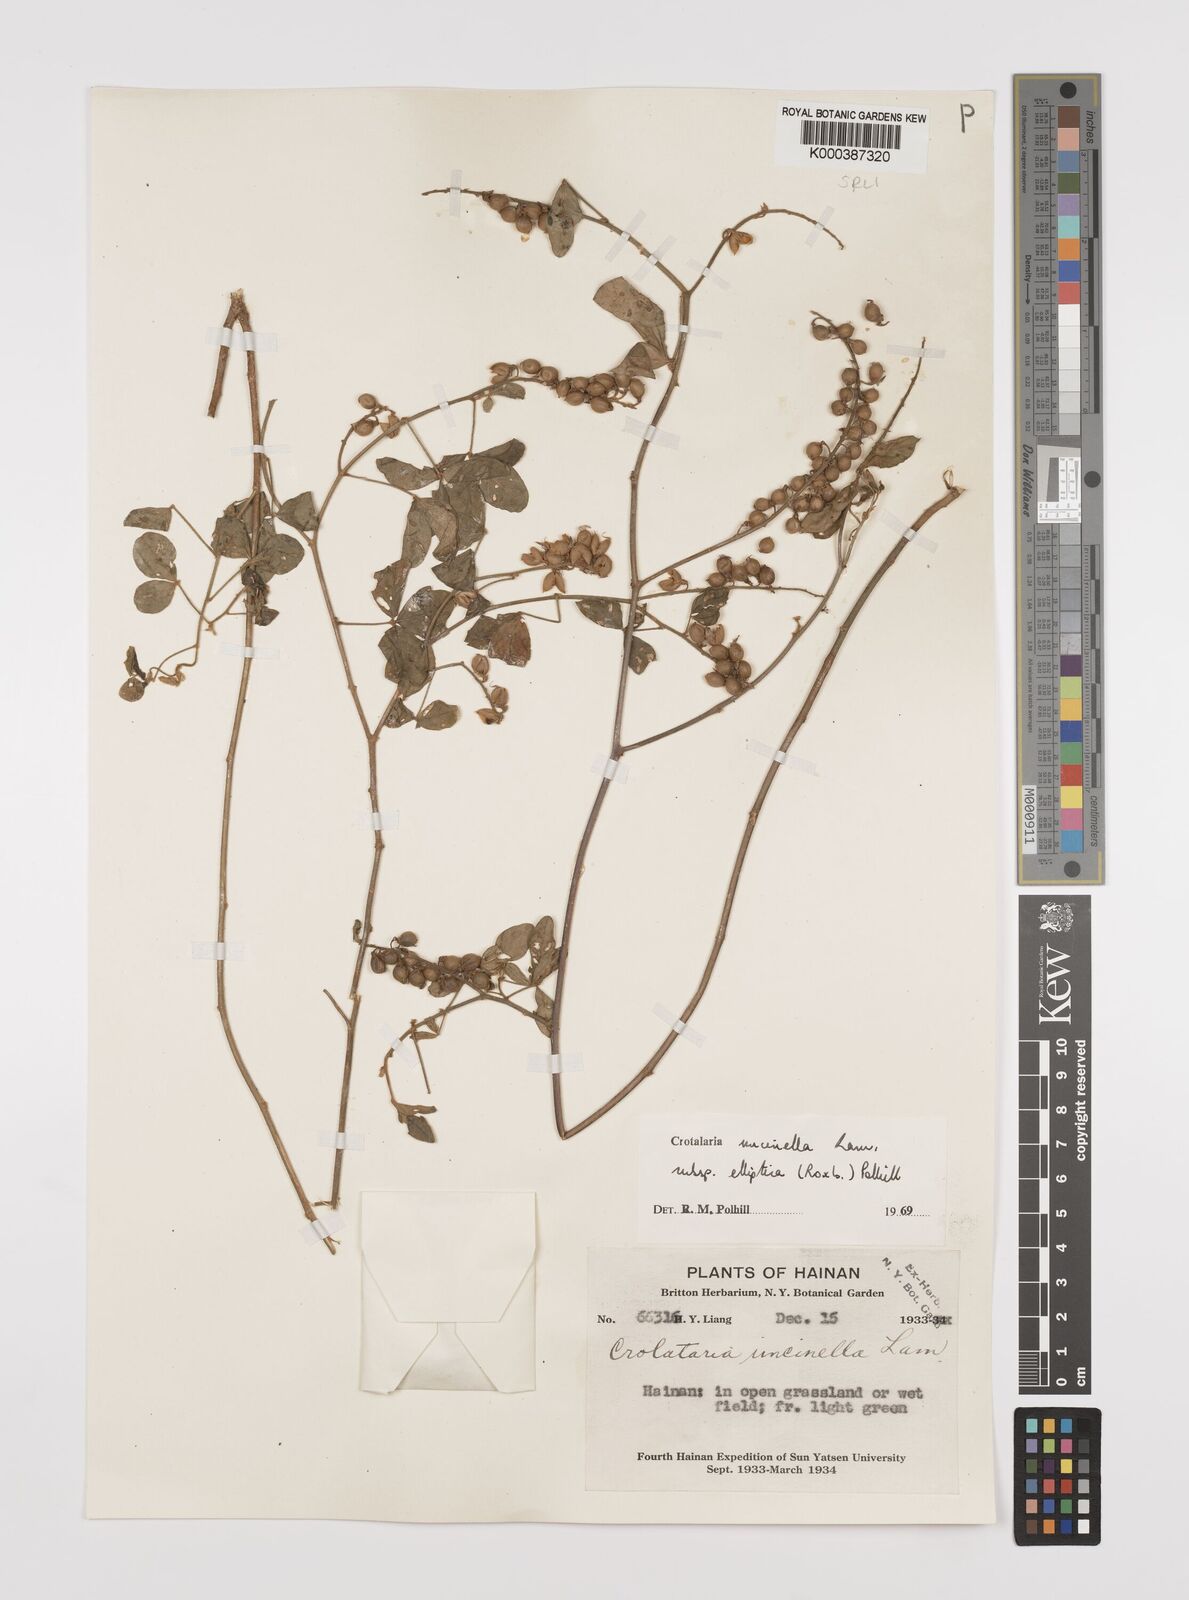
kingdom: Plantae
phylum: Tracheophyta
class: Magnoliopsida
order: Fabales
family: Fabaceae
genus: Crotalaria
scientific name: Crotalaria uncinella
